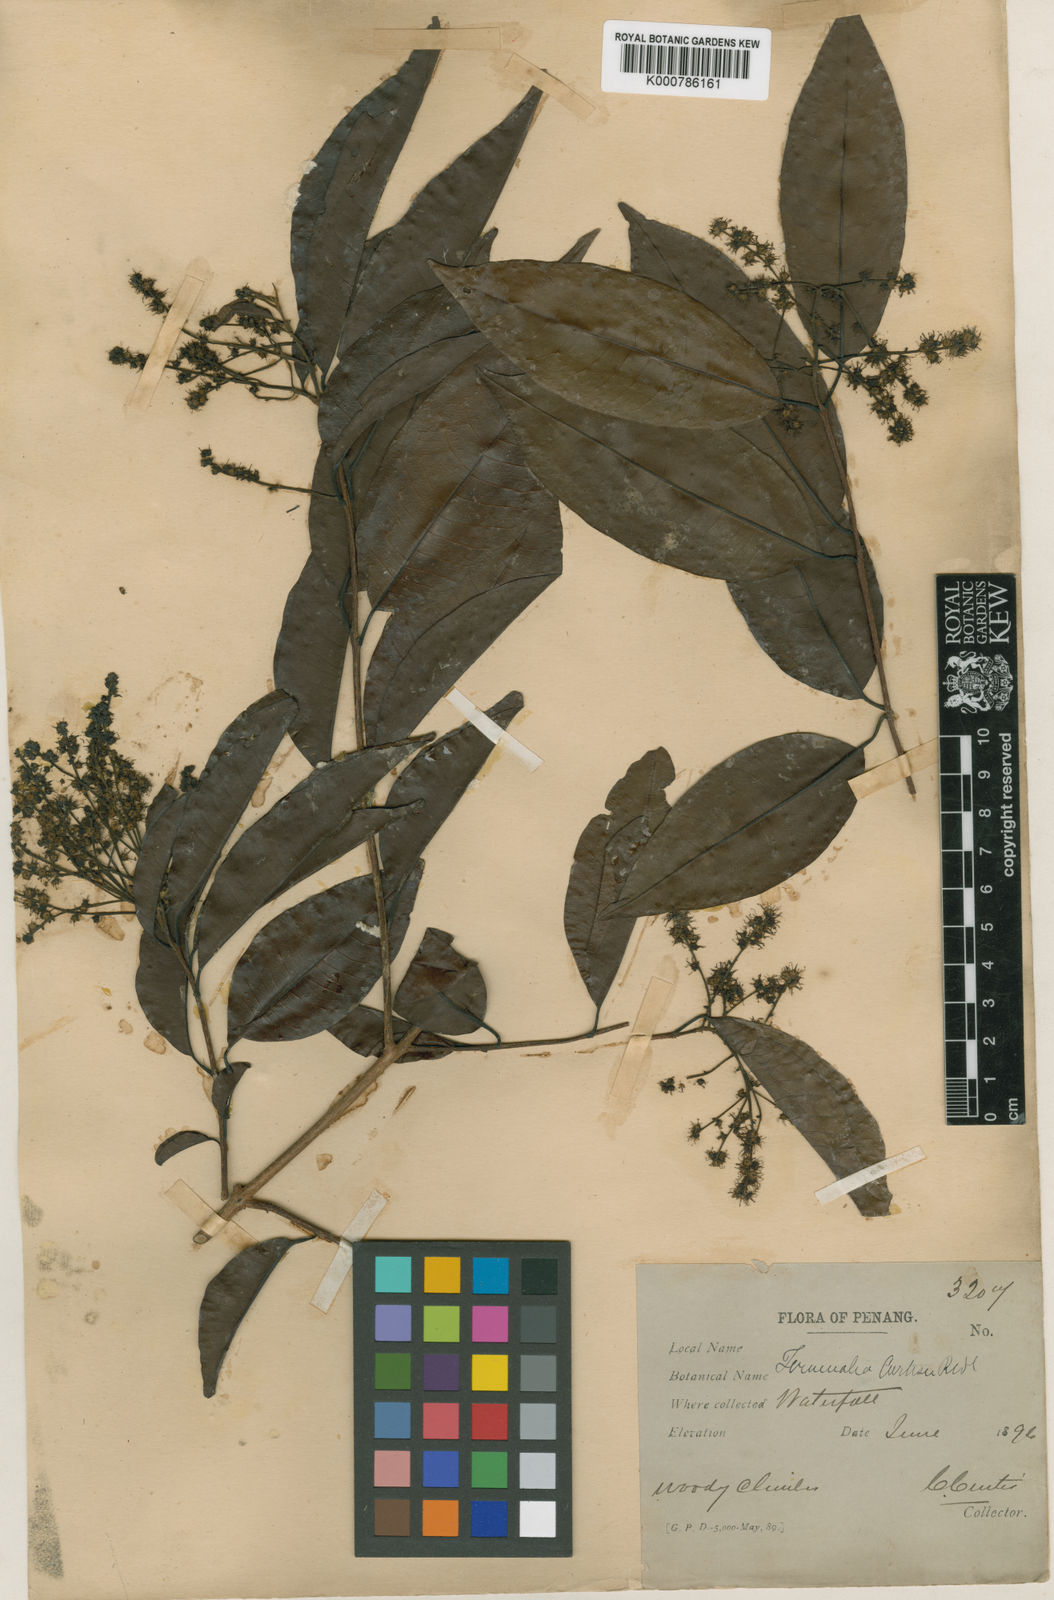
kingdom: Plantae
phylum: Tracheophyta
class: Magnoliopsida
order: Myrtales
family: Combretaceae
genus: Terminalia
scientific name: Terminalia
